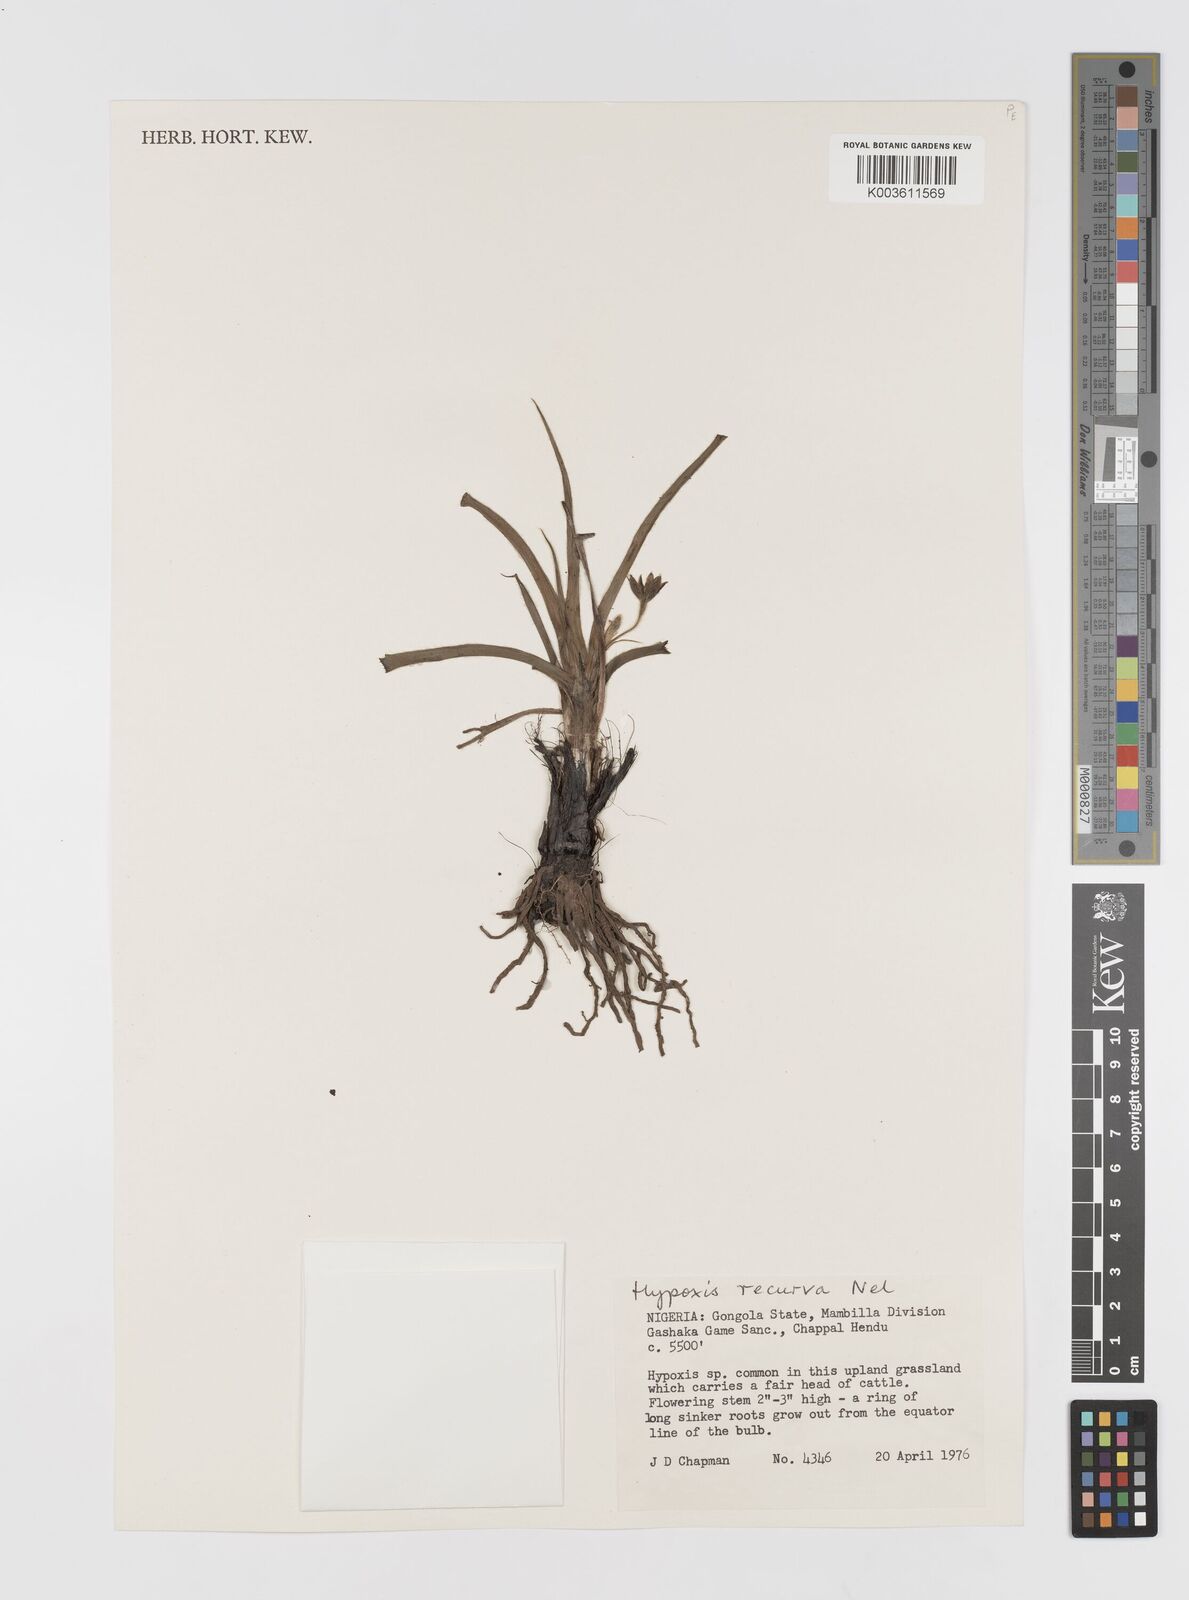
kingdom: Plantae
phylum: Tracheophyta
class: Liliopsida
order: Asparagales
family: Hypoxidaceae
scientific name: Hypoxidaceae
